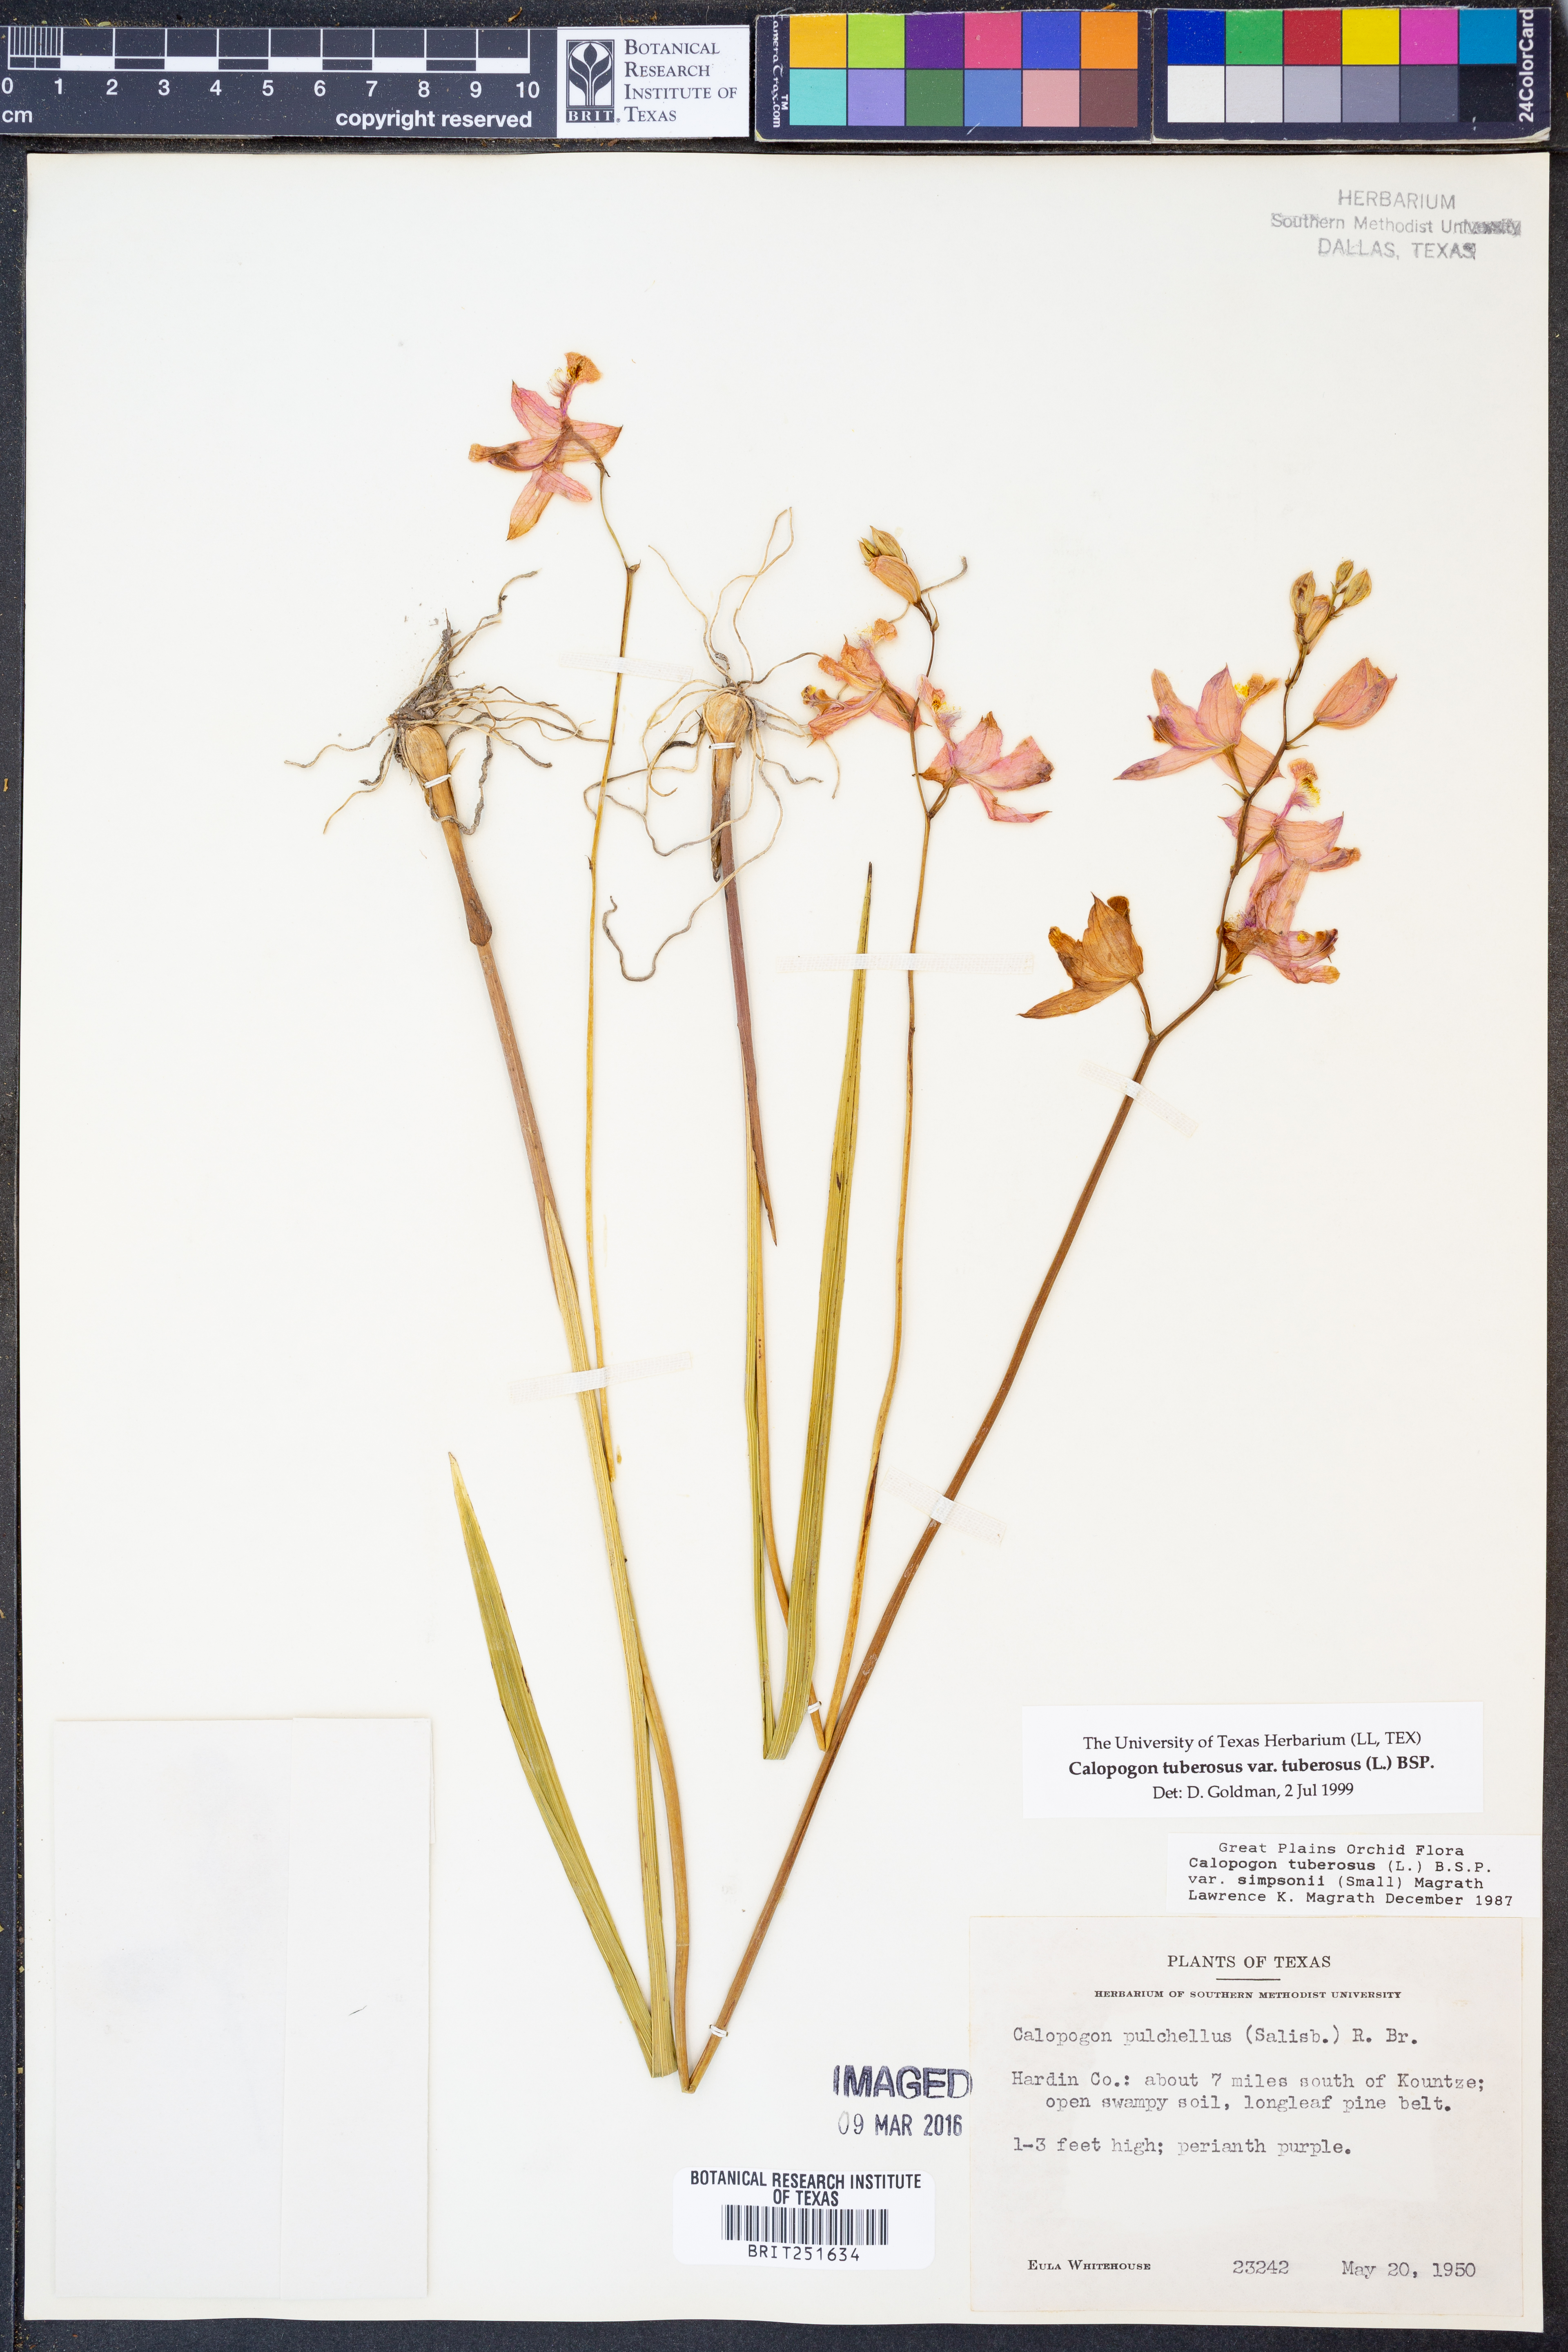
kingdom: Plantae
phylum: Tracheophyta
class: Liliopsida
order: Asparagales
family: Orchidaceae
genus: Calopogon
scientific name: Calopogon tuberosus
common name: Grass-pink
